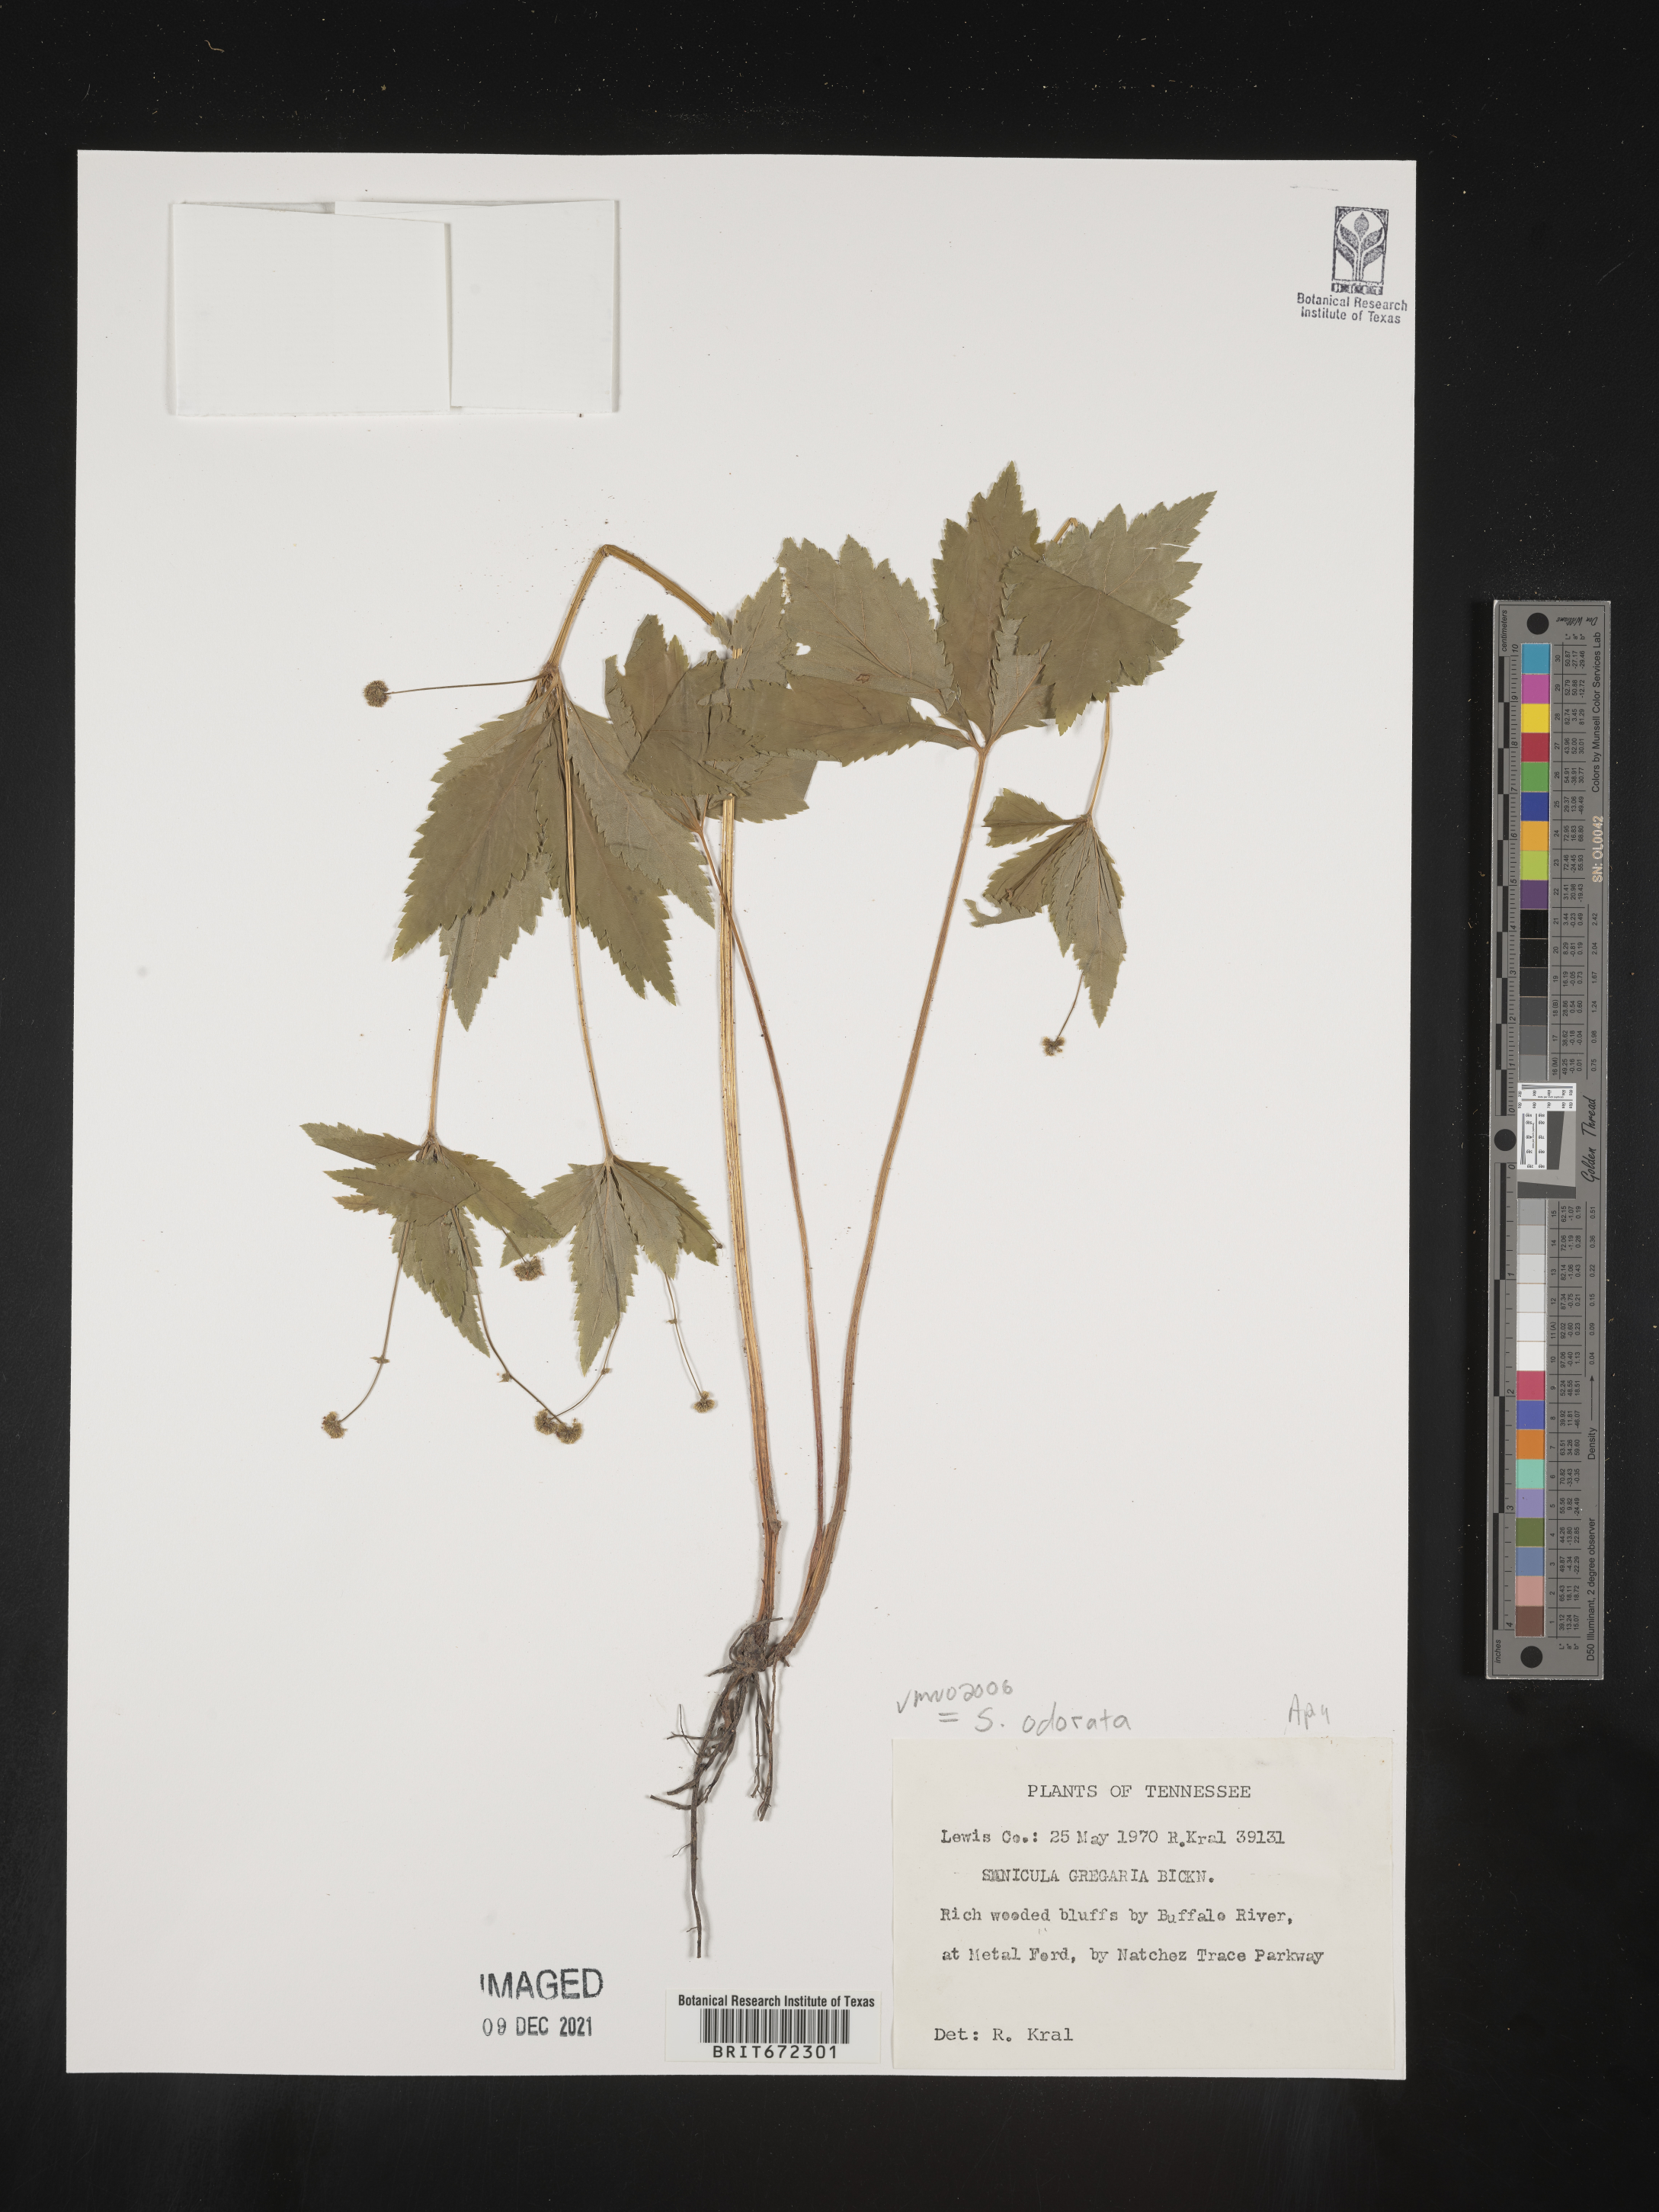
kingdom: Plantae
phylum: Tracheophyta
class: Magnoliopsida
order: Apiales
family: Apiaceae
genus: Sanicula
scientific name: Sanicula
